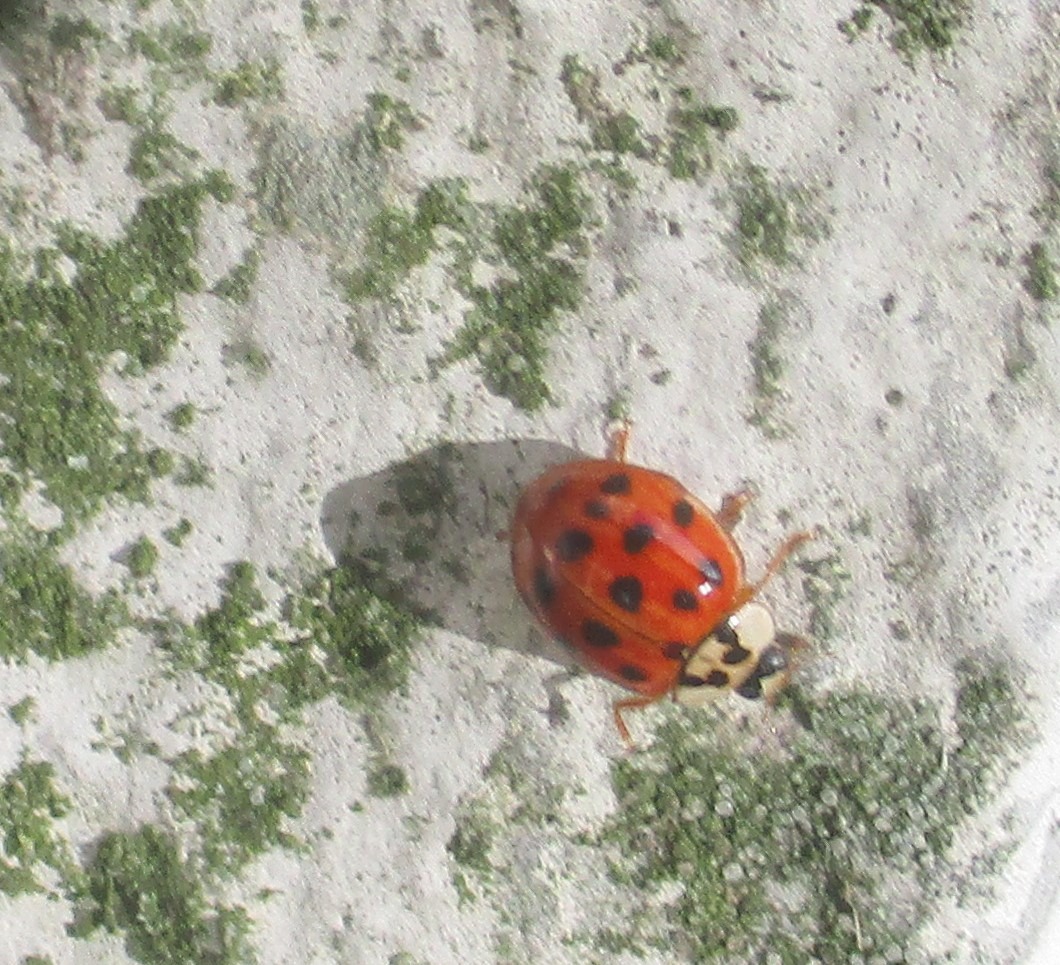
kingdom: Animalia
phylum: Arthropoda
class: Insecta
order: Coleoptera
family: Coccinellidae
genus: Harmonia
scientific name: Harmonia axyridis
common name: Harlekinmariehøne
